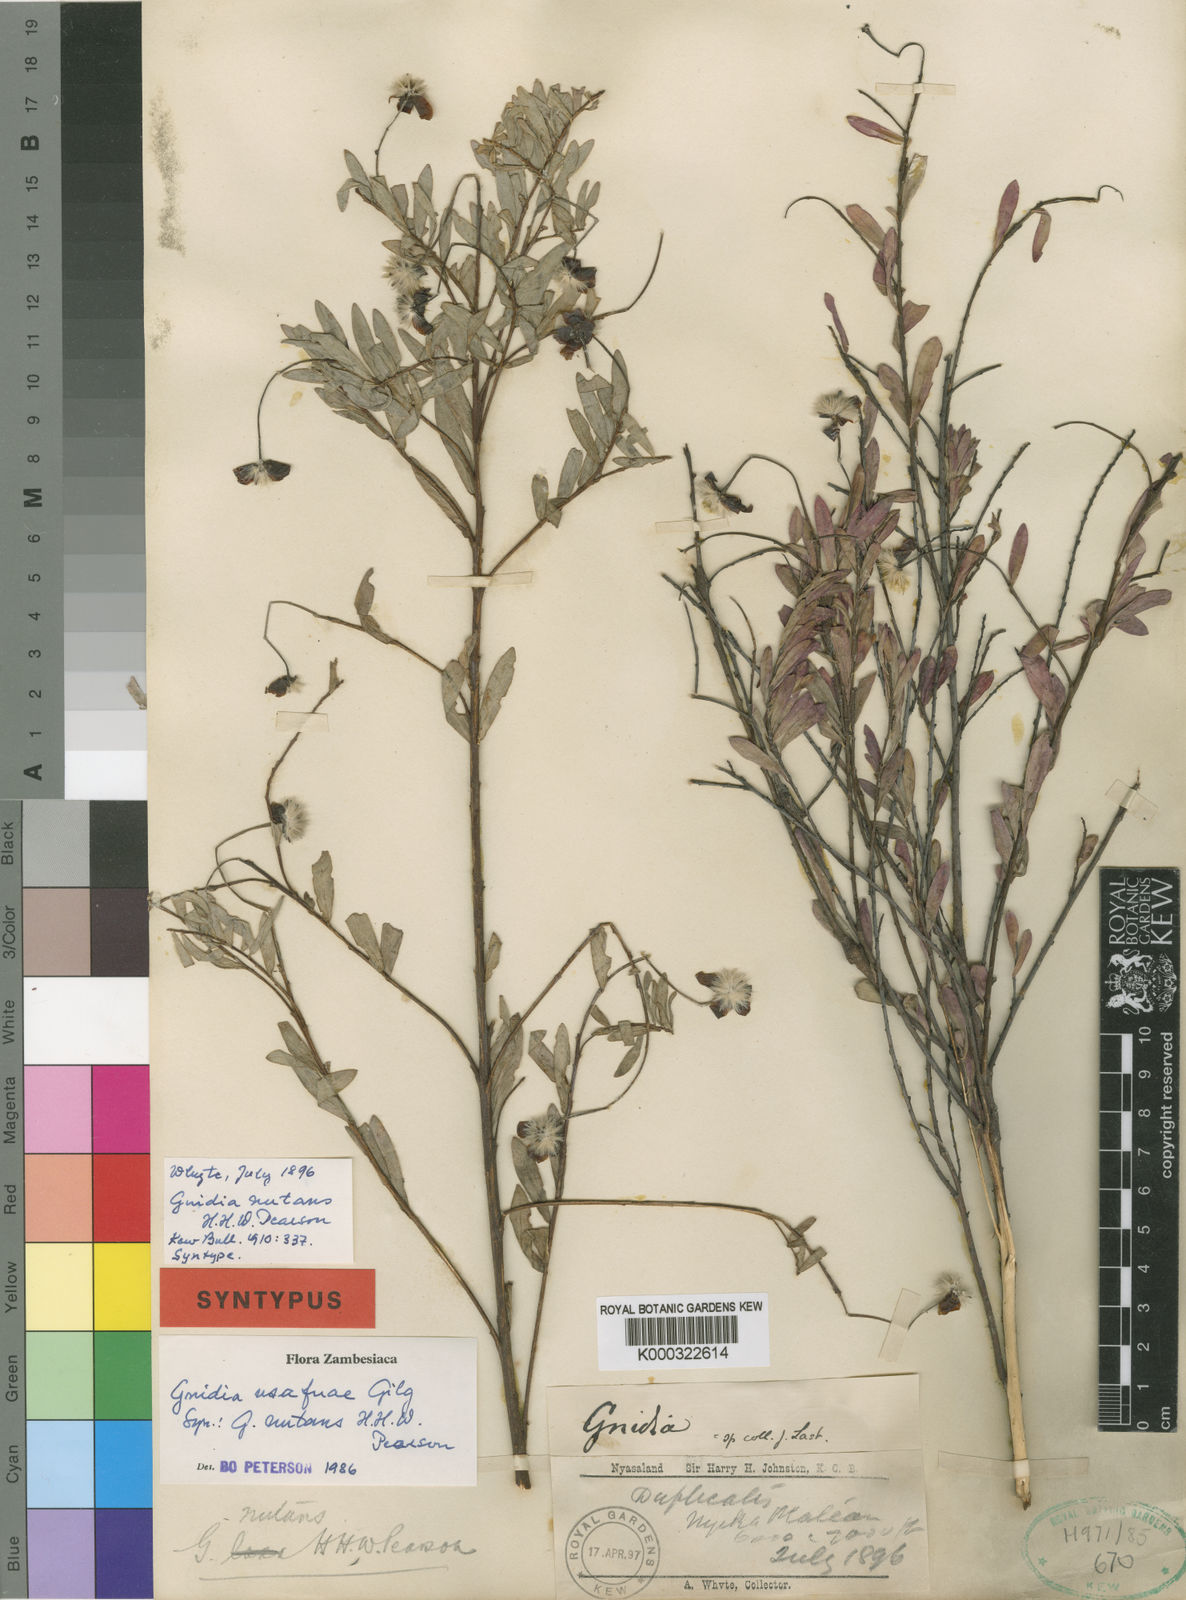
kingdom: Plantae
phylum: Tracheophyta
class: Magnoliopsida
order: Malvales
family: Thymelaeaceae
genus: Gnidia
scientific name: Gnidia usafuae
